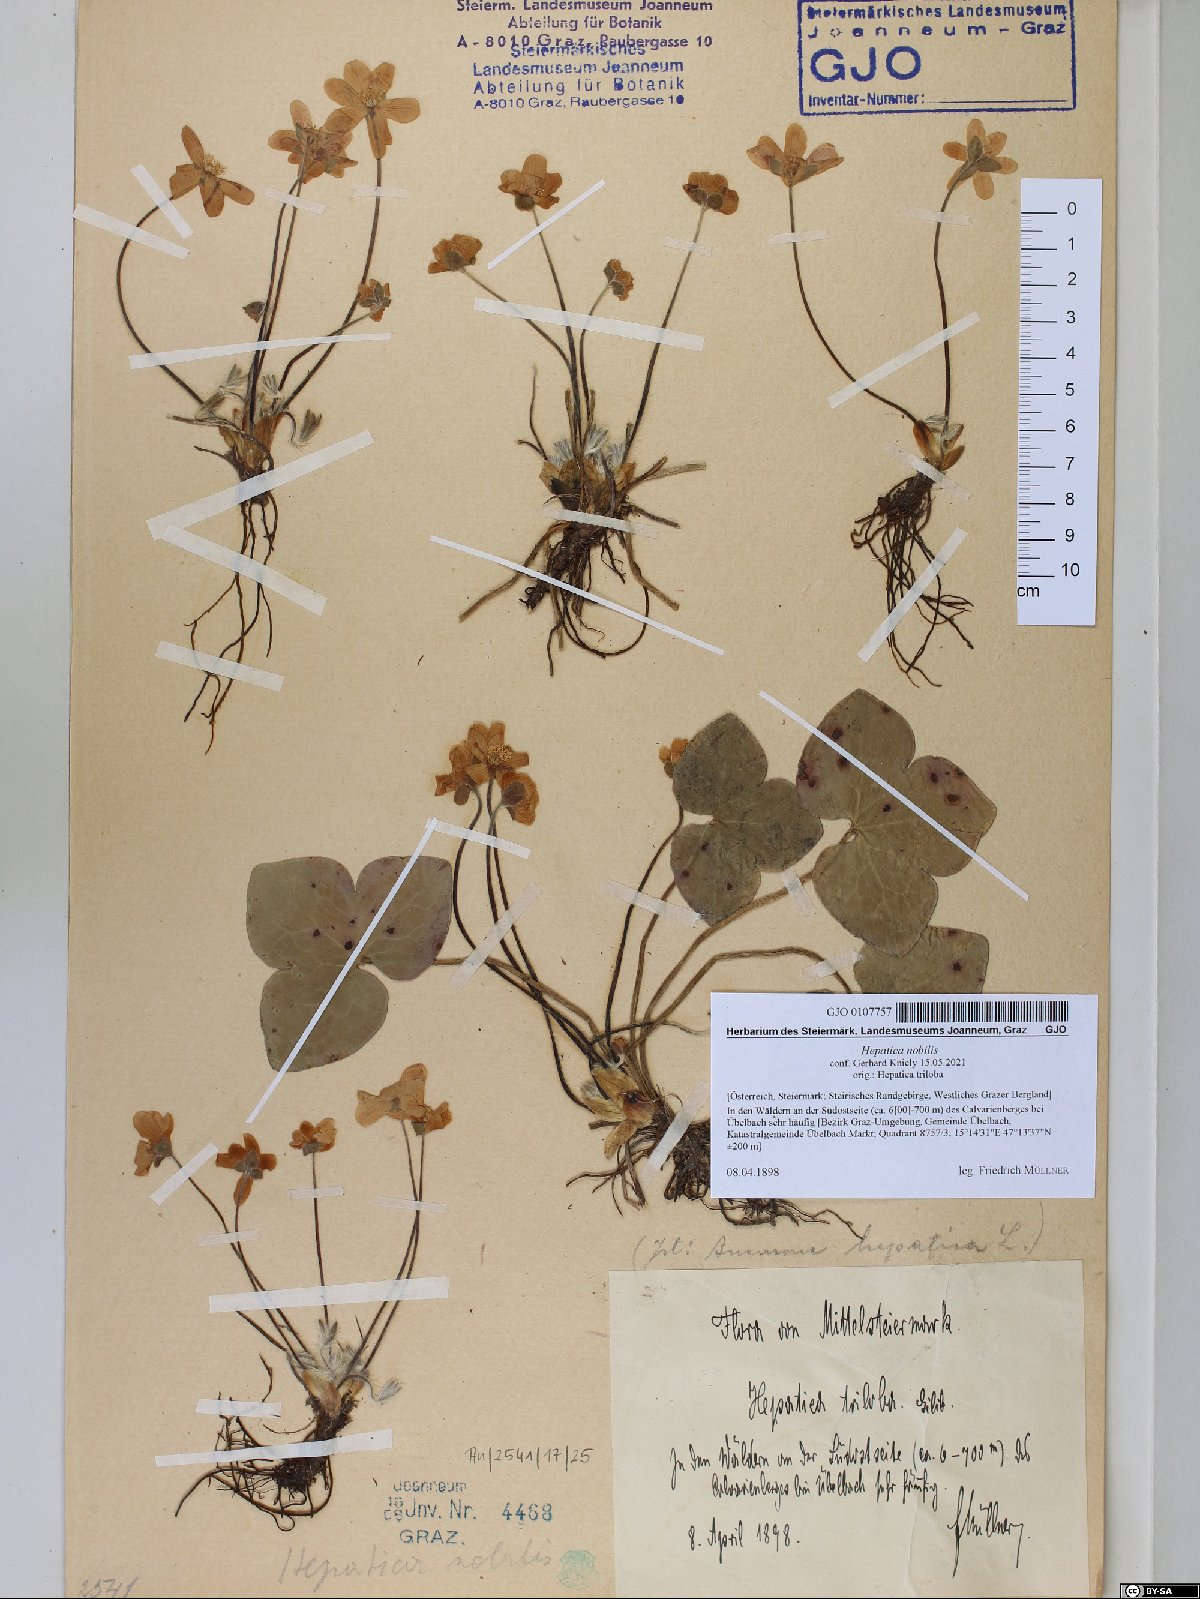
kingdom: Plantae
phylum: Tracheophyta
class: Magnoliopsida
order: Ranunculales
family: Ranunculaceae
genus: Hepatica
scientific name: Hepatica nobilis
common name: Liverleaf
